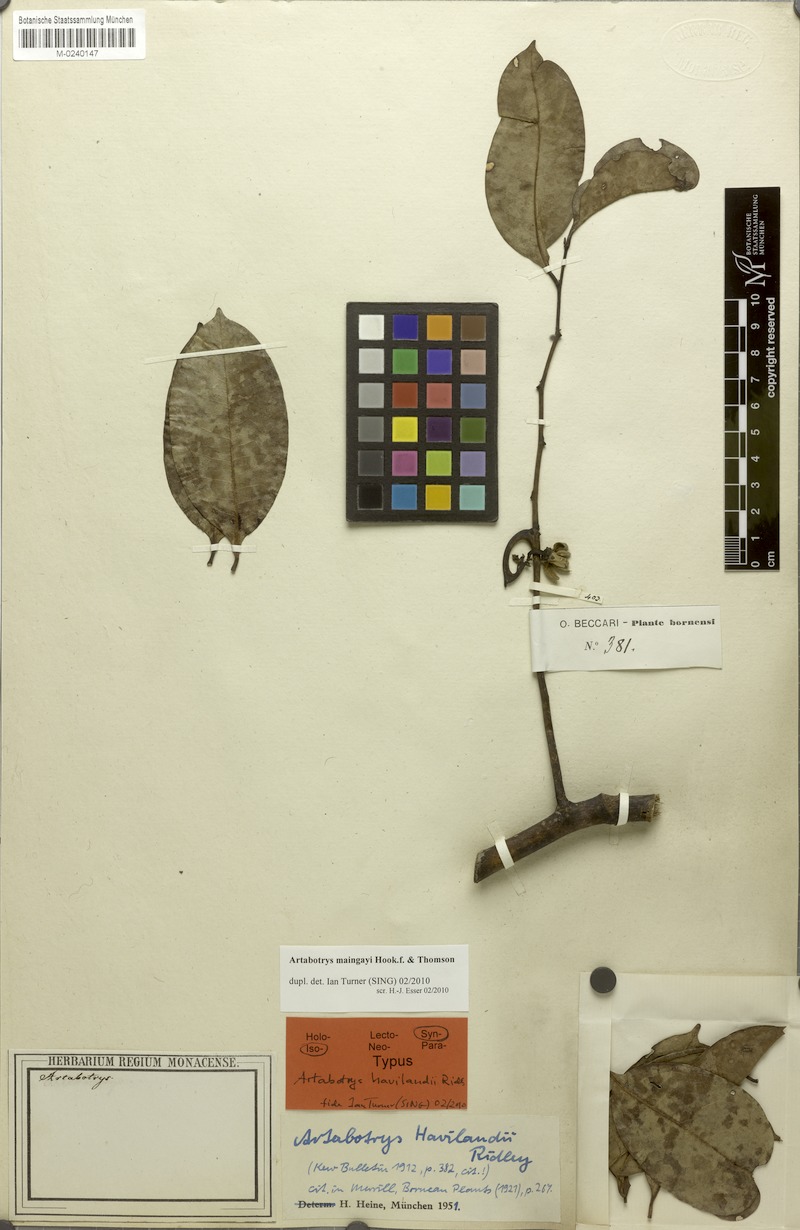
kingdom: Plantae
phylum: Tracheophyta
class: Magnoliopsida
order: Magnoliales
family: Annonaceae
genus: Artabotrys
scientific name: Artabotrys maingayi
